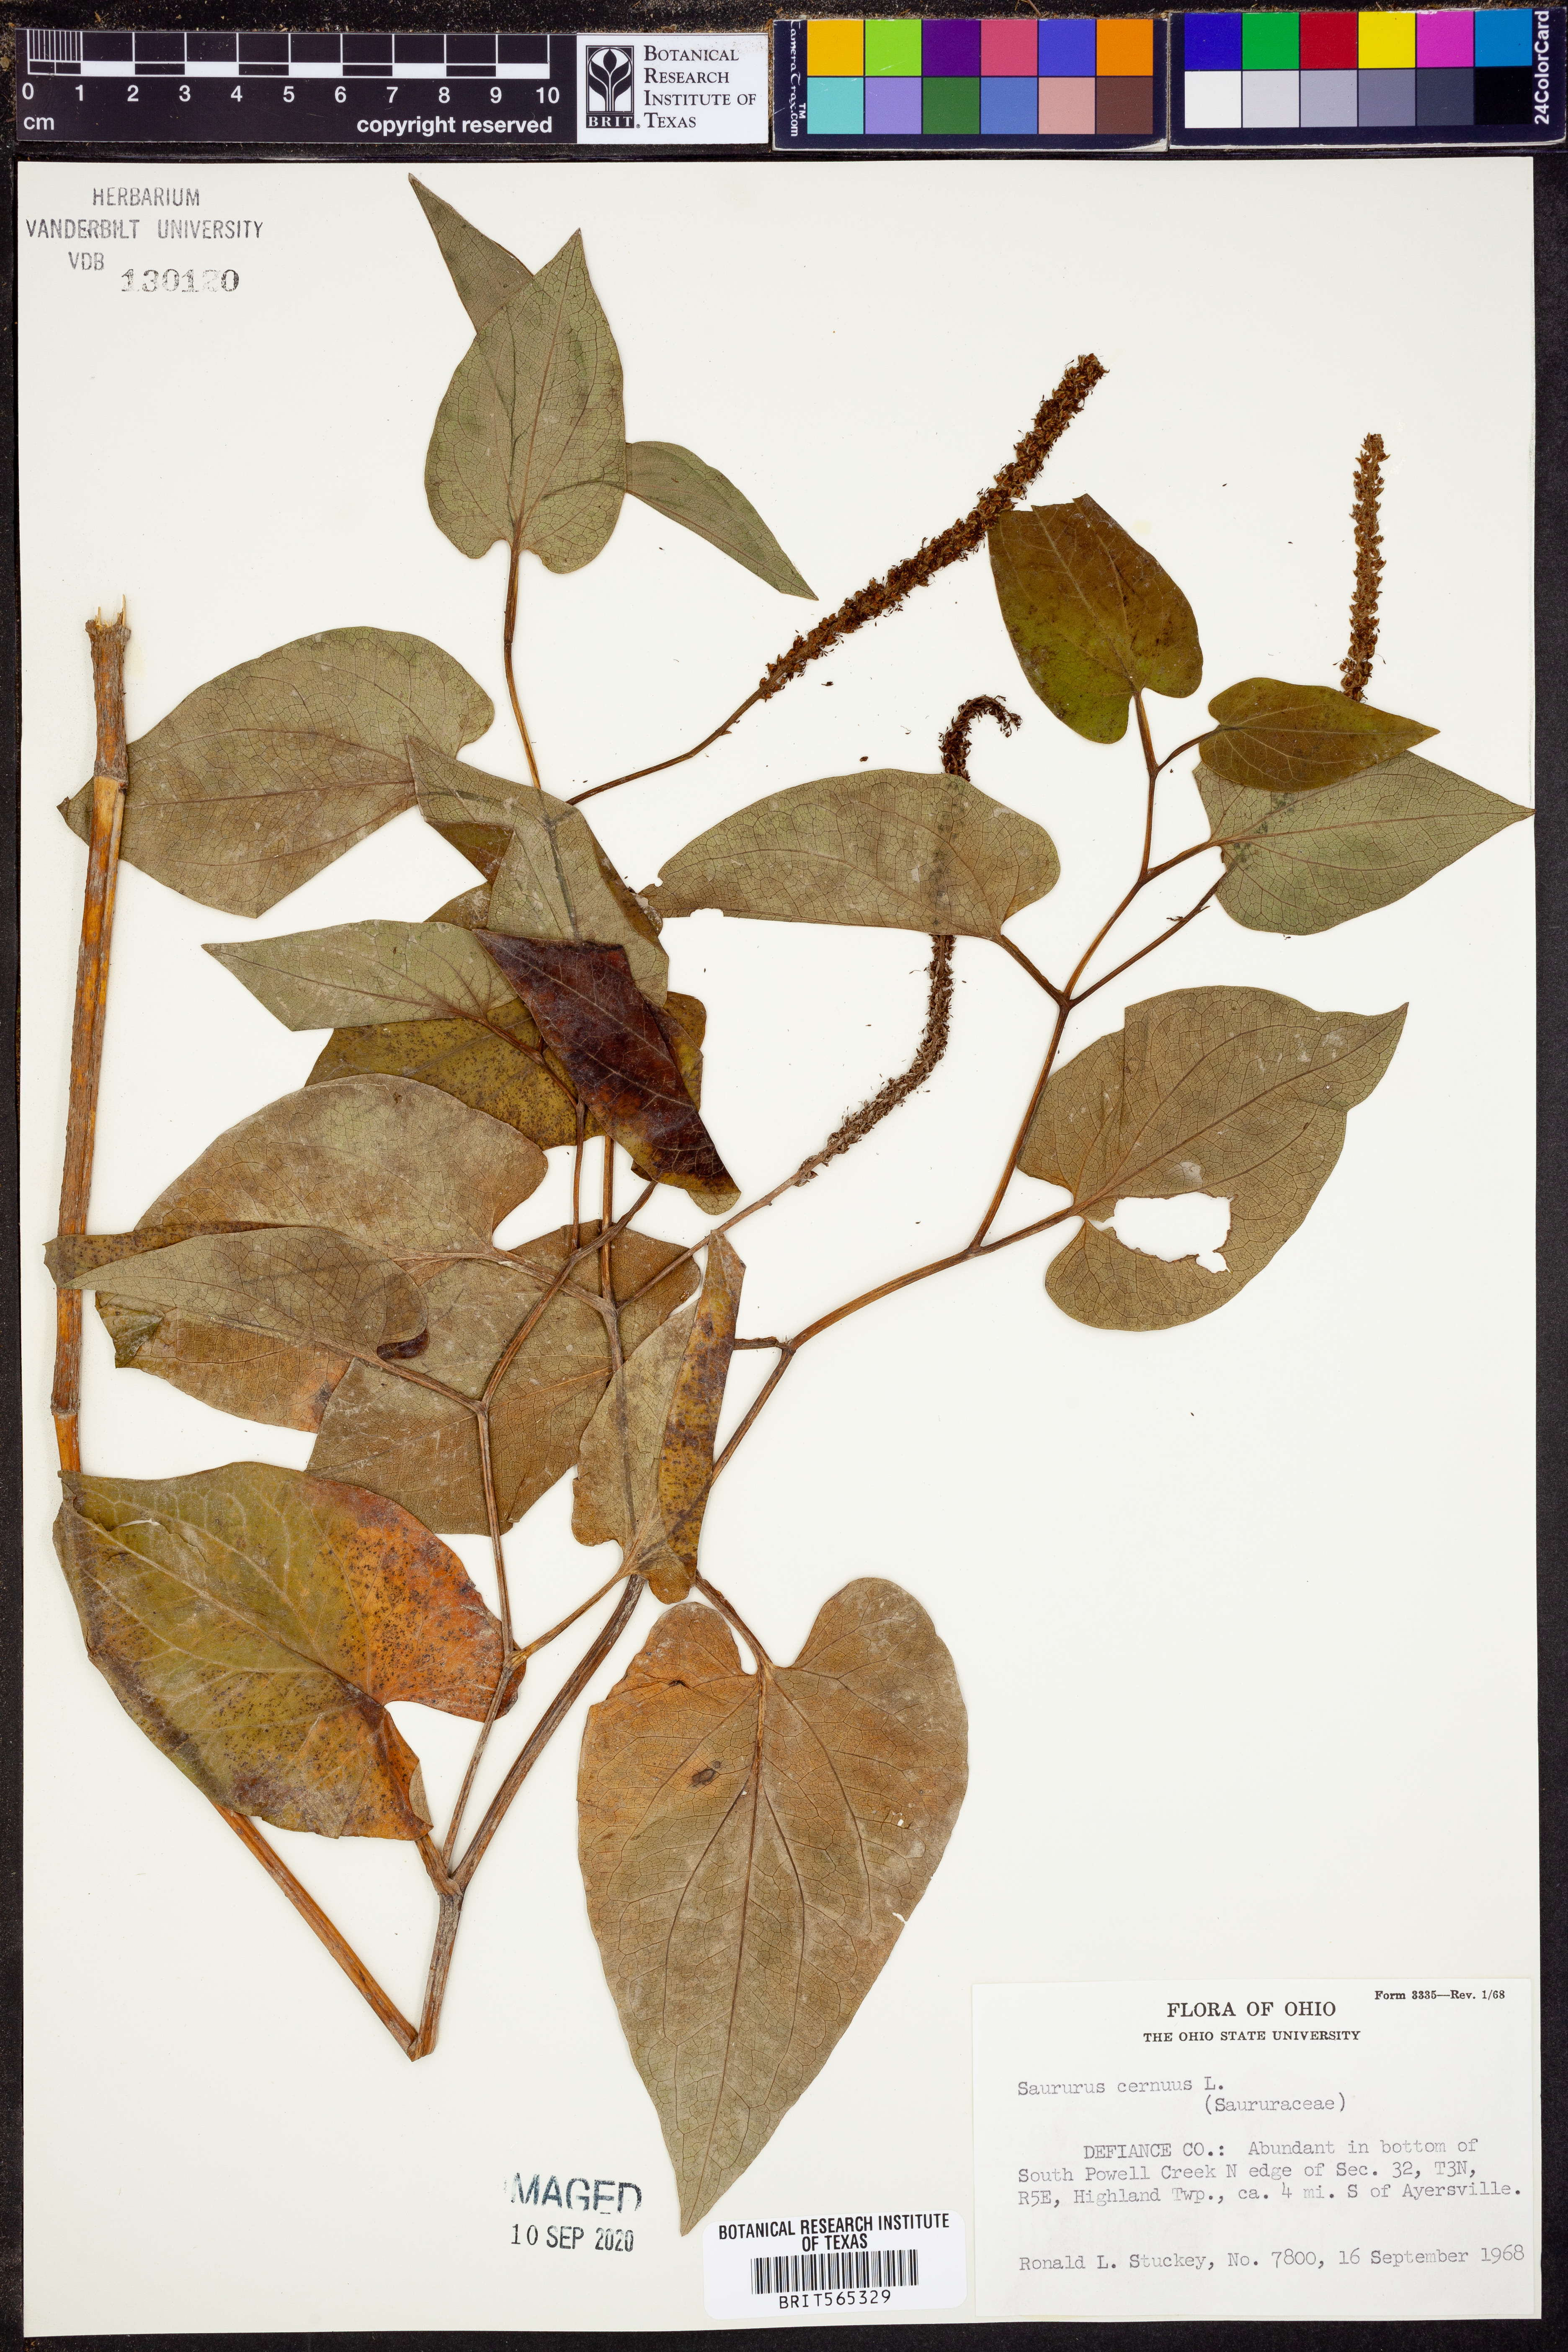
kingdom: Plantae
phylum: Tracheophyta
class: Magnoliopsida
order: Piperales
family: Saururaceae
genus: Saururus
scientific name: Saururus cernuus
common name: Lizard's-tail
